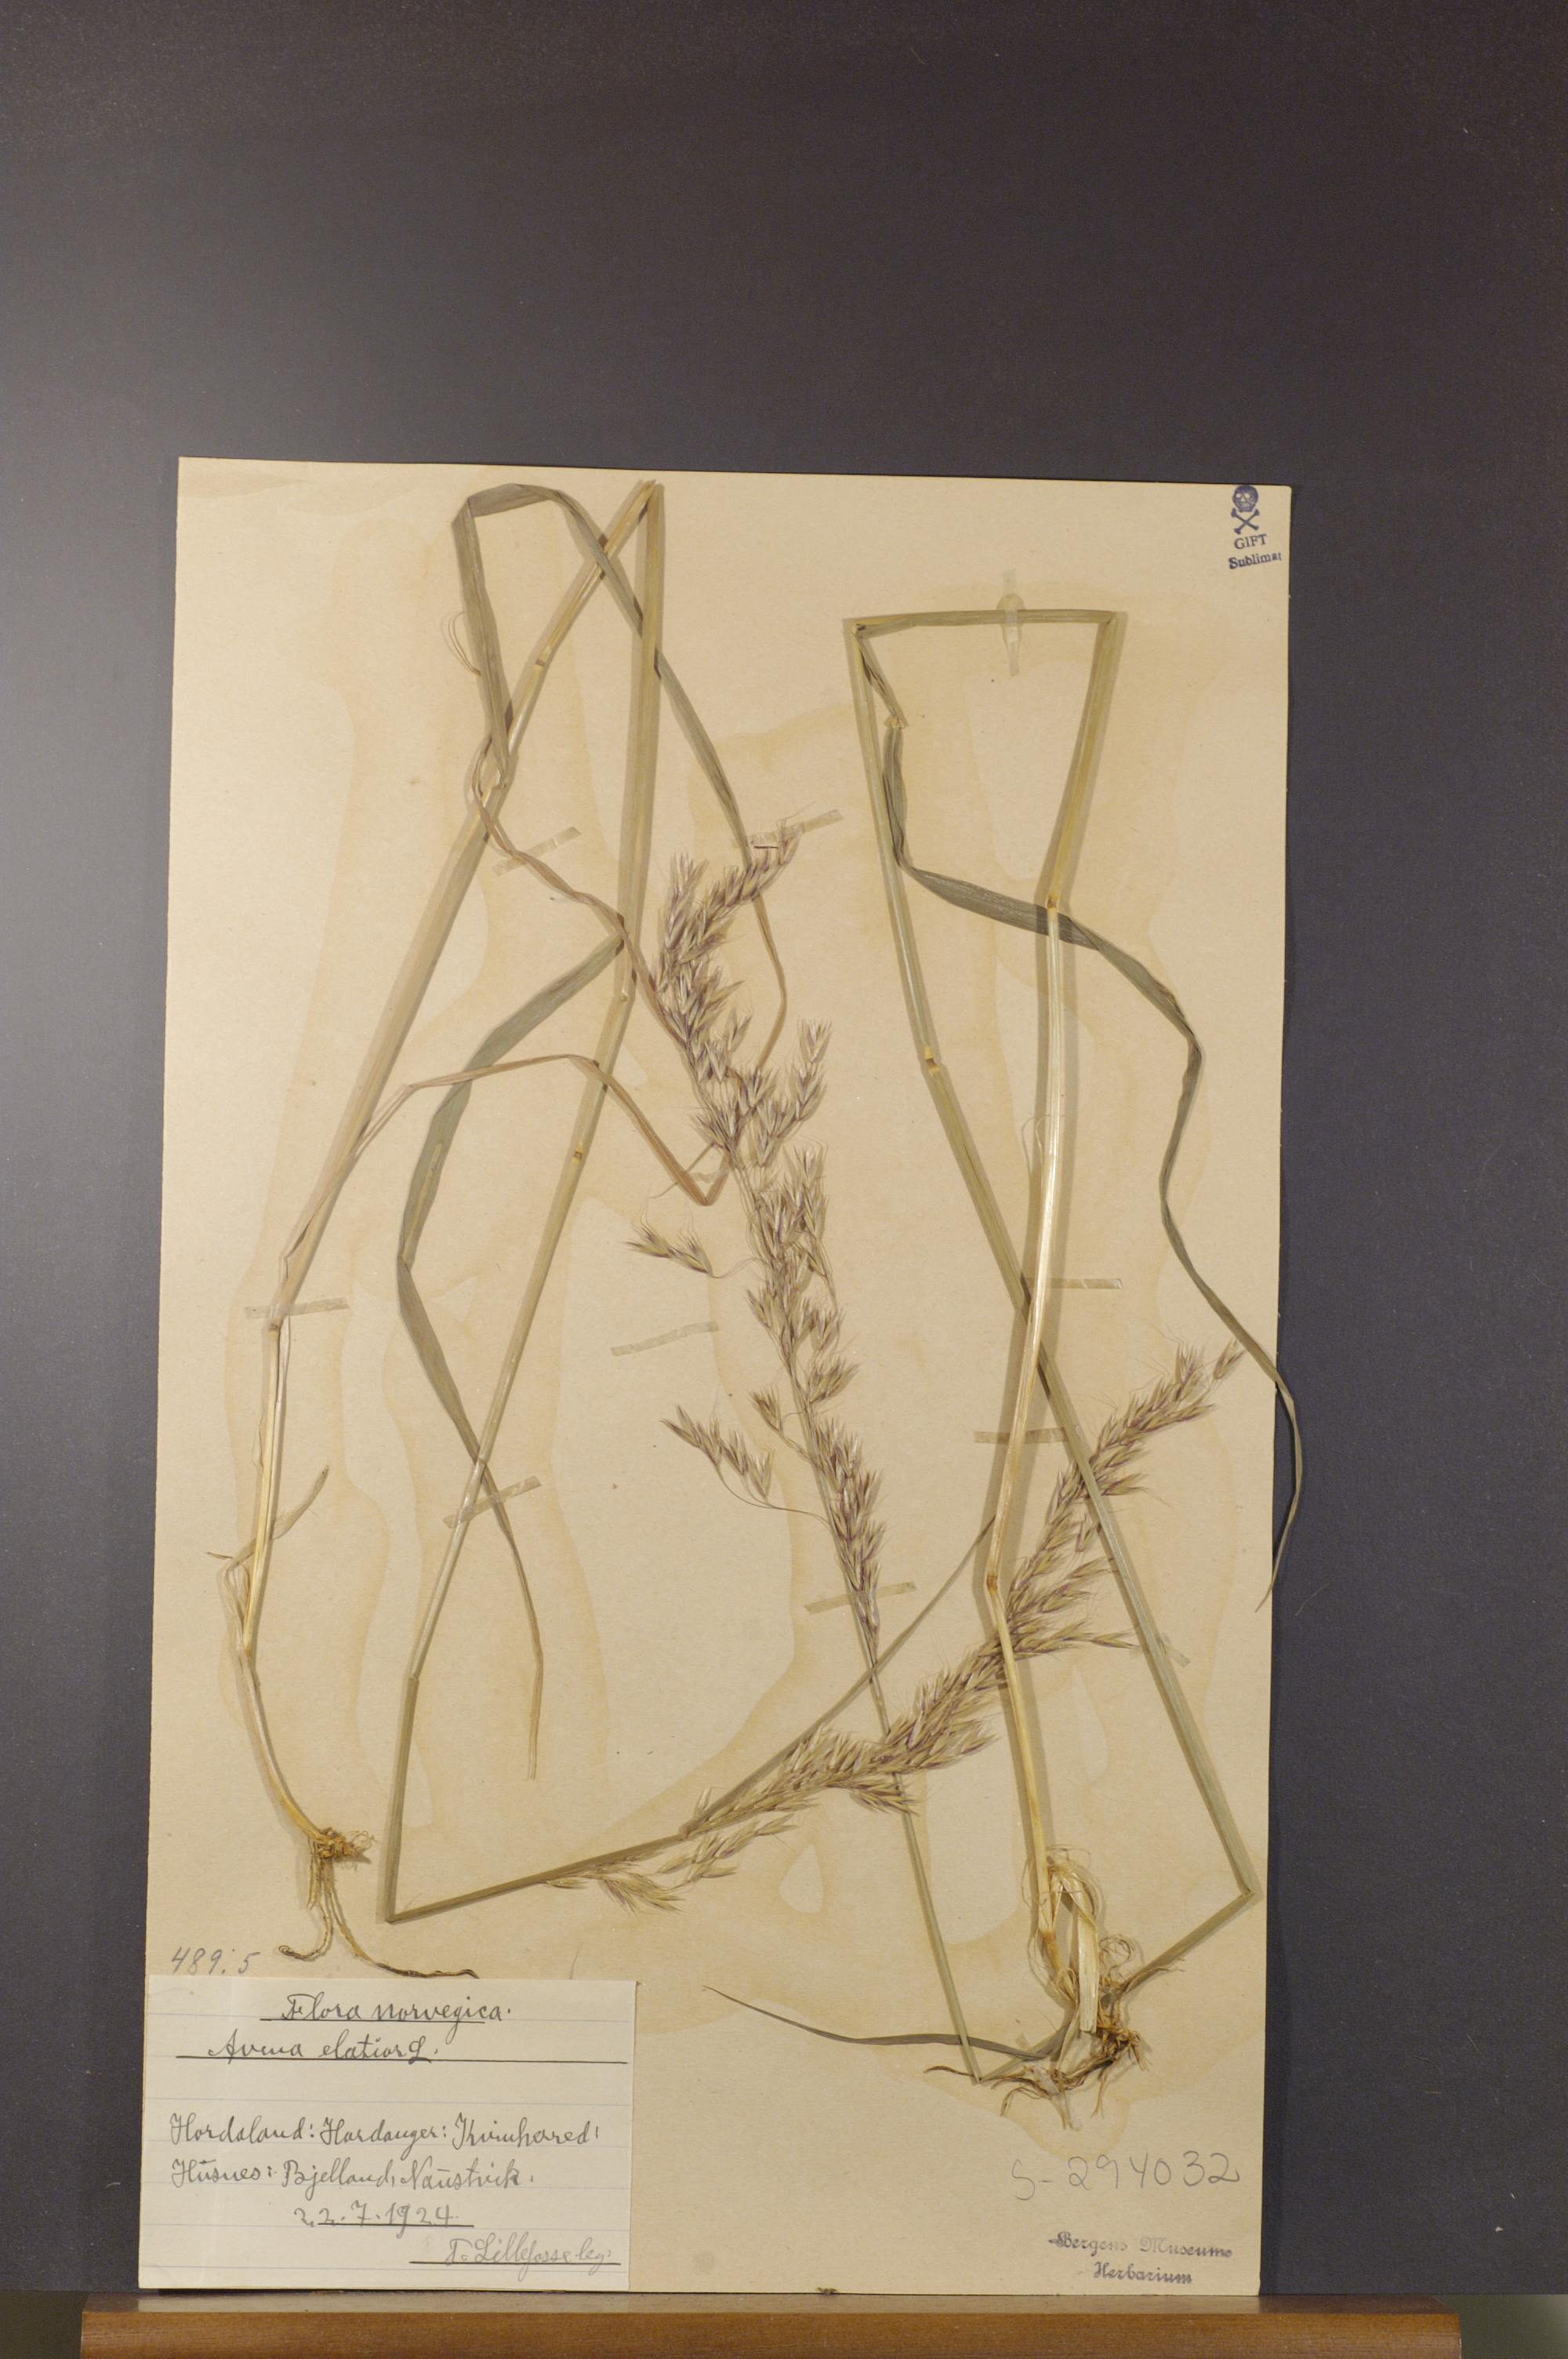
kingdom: Plantae
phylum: Tracheophyta
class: Liliopsida
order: Poales
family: Poaceae
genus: Arrhenatherum
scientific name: Arrhenatherum elatius
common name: Tall oatgrass
